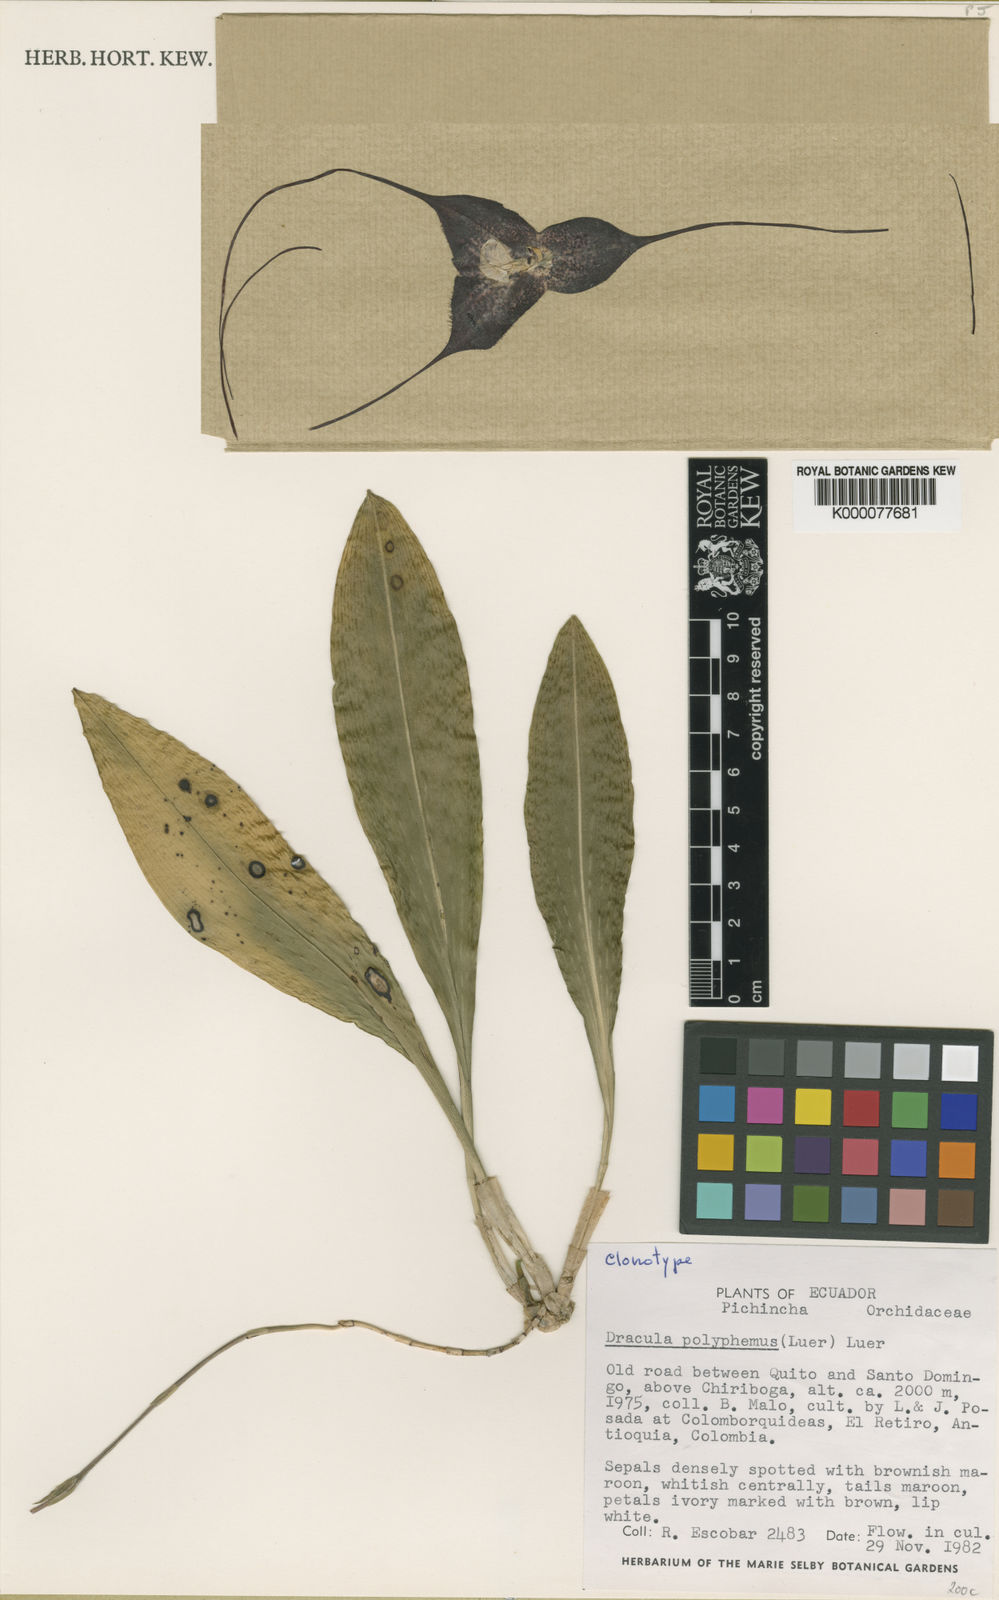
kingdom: Plantae
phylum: Tracheophyta
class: Liliopsida
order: Asparagales
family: Orchidaceae
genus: Dracula
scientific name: Dracula polyphemus
